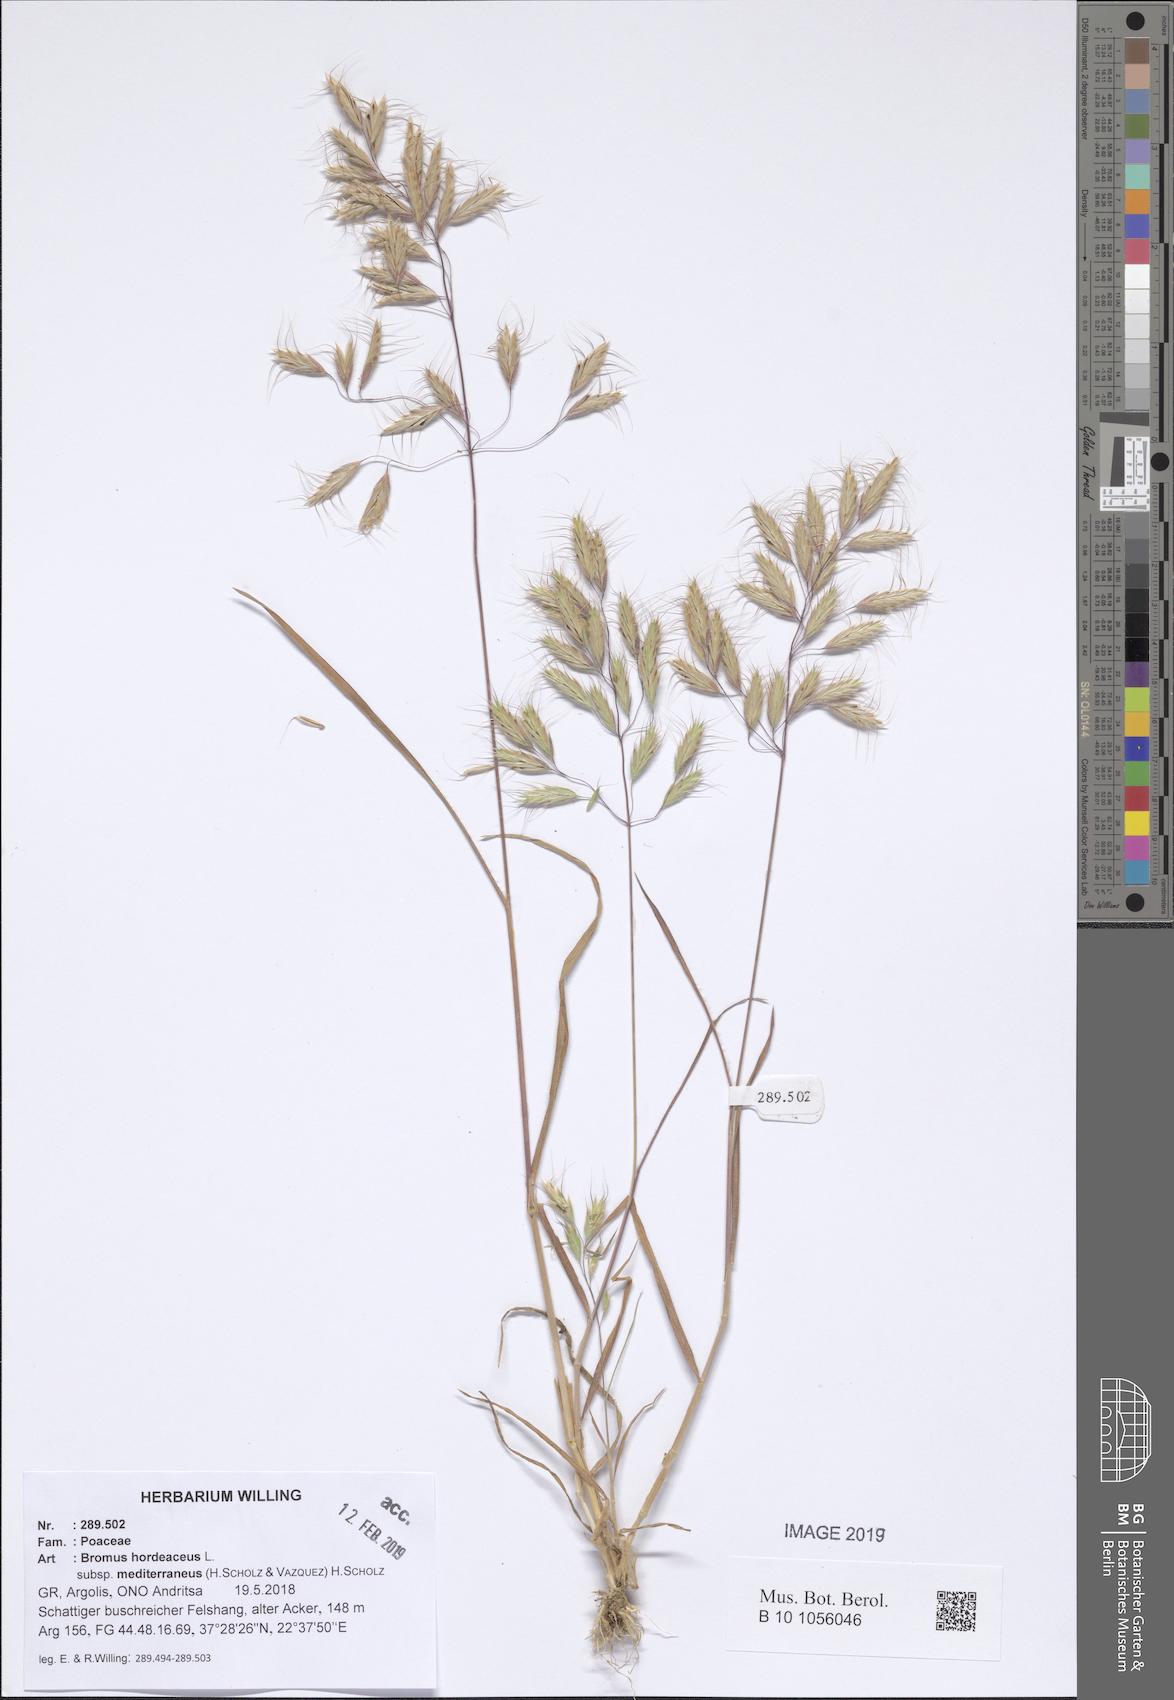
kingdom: Plantae
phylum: Tracheophyta
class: Liliopsida
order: Poales
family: Poaceae
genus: Bromus
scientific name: Bromus hordeaceus
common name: Soft brome
